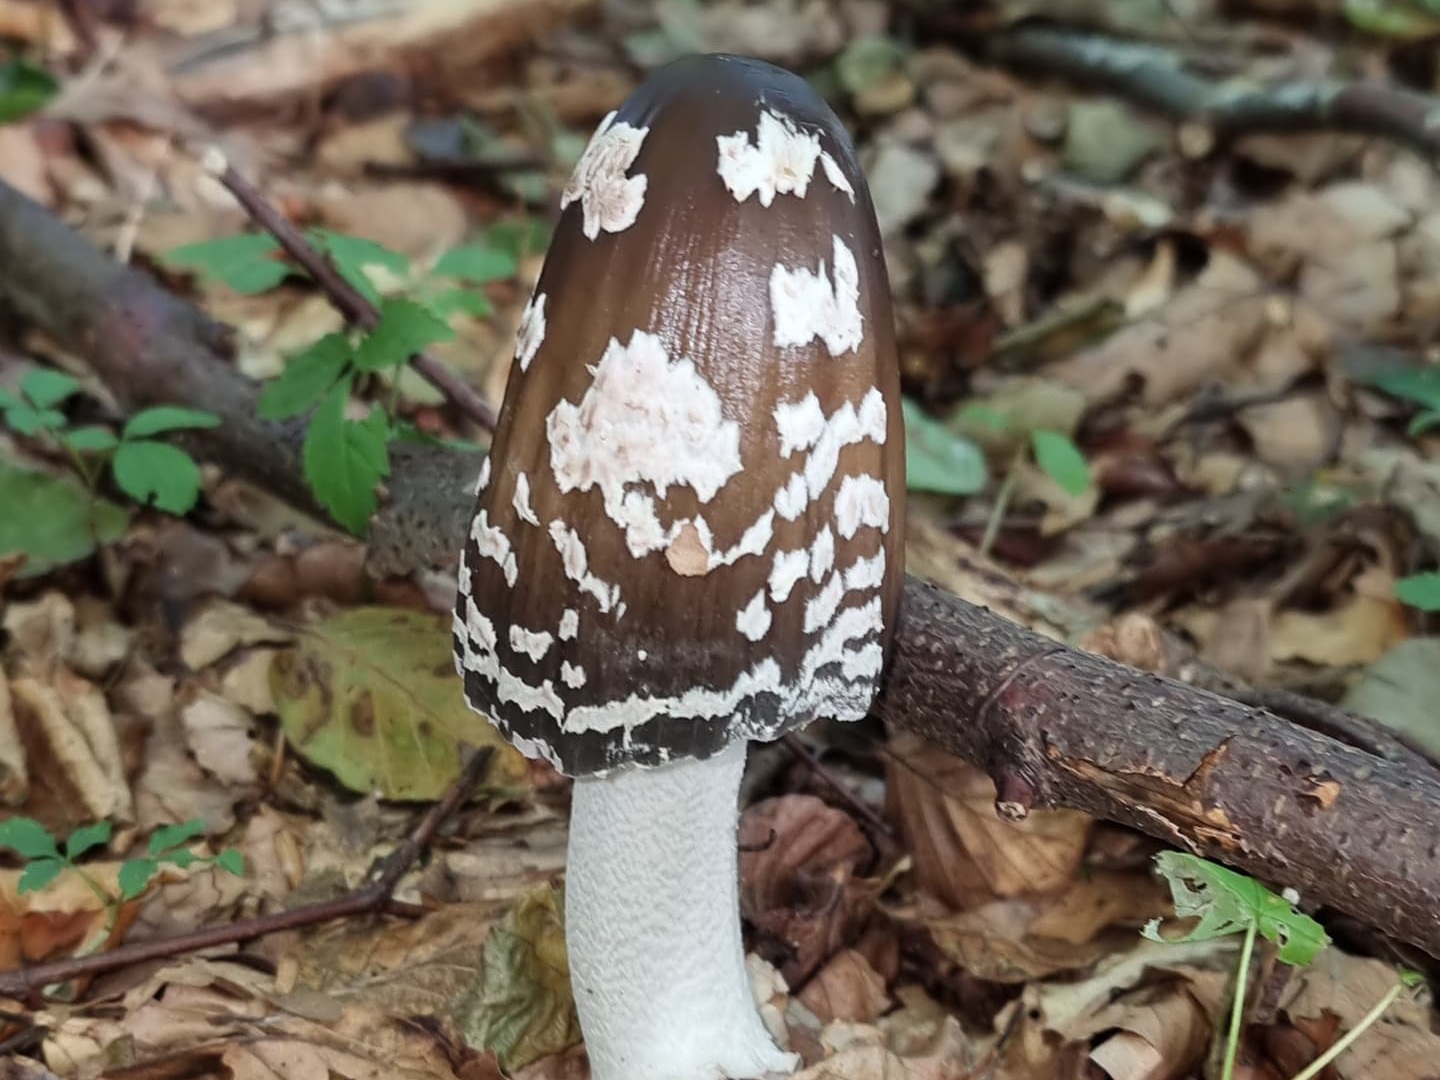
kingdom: Fungi
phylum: Basidiomycota
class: Agaricomycetes
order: Agaricales
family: Psathyrellaceae
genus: Coprinopsis
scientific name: Coprinopsis picacea
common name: skade-blækhat
